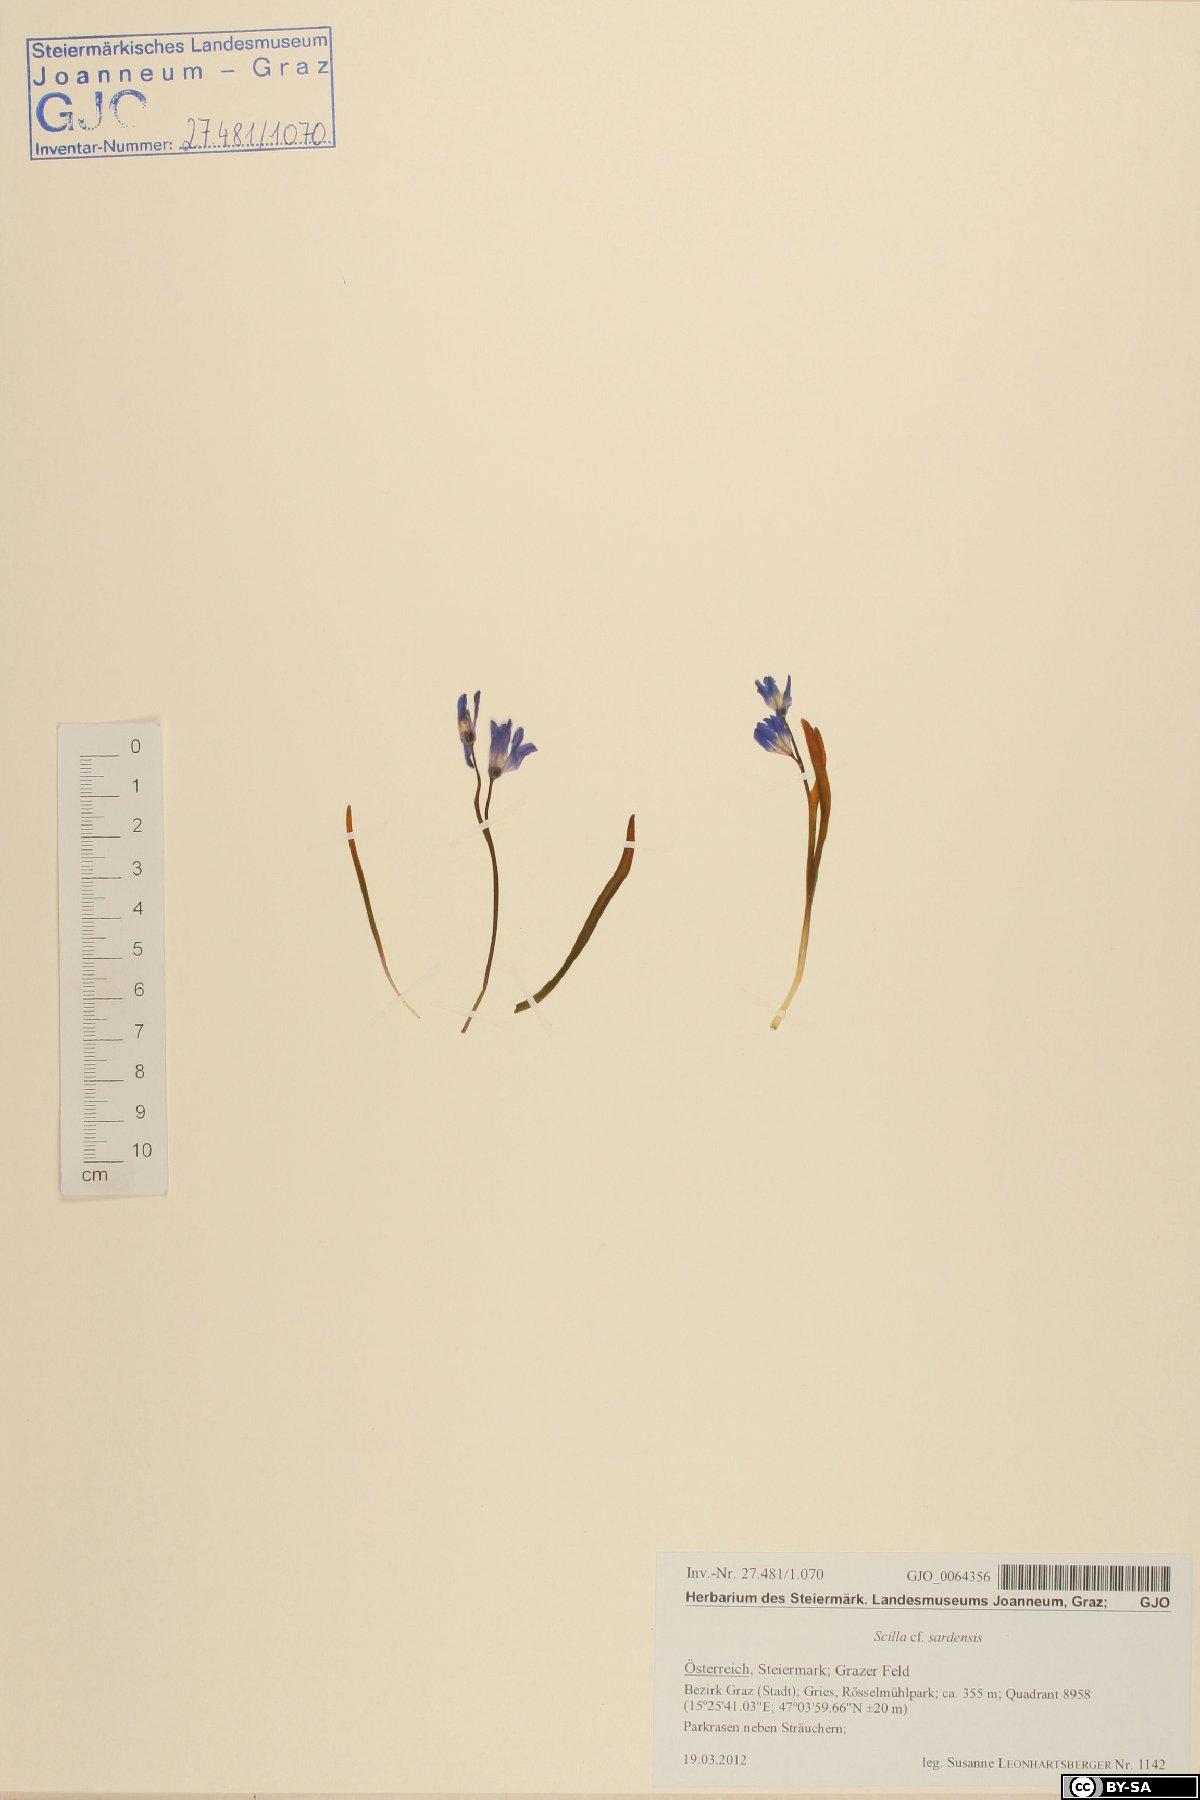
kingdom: Plantae
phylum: Tracheophyta
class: Liliopsida
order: Asparagales
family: Asparagaceae
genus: Scilla
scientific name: Scilla sardensis
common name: Lesser glory-of-the-snow
